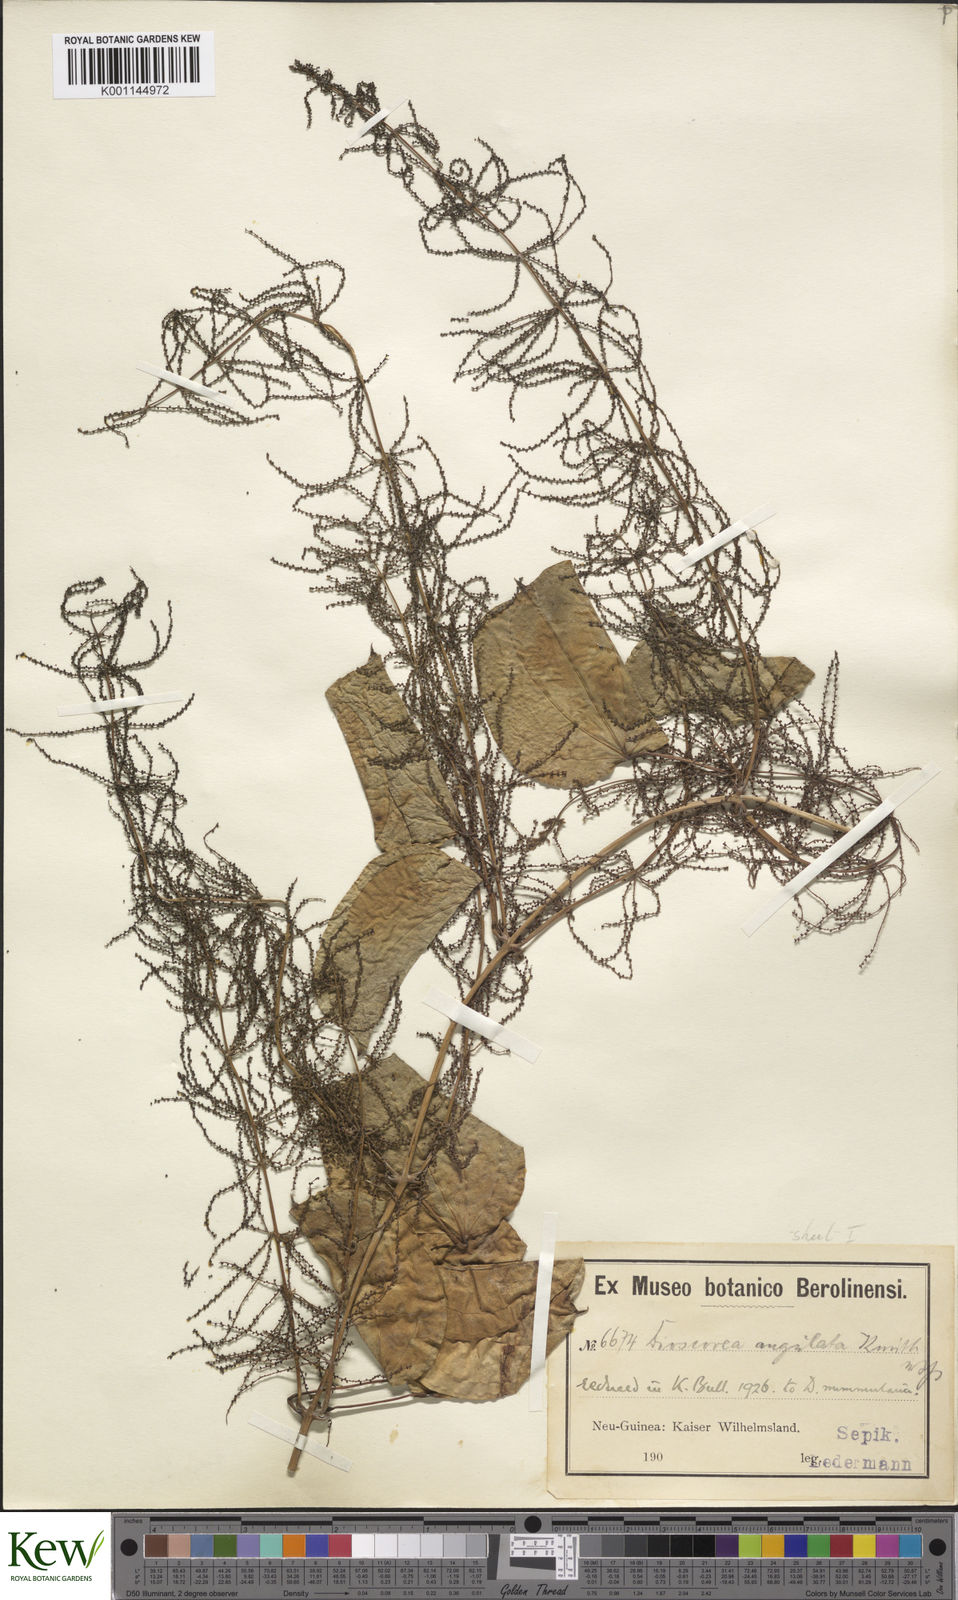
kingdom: Plantae
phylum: Tracheophyta
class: Liliopsida
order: Dioscoreales
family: Dioscoreaceae
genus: Dioscorea
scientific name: Dioscorea nummularia
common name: Pacific yam
